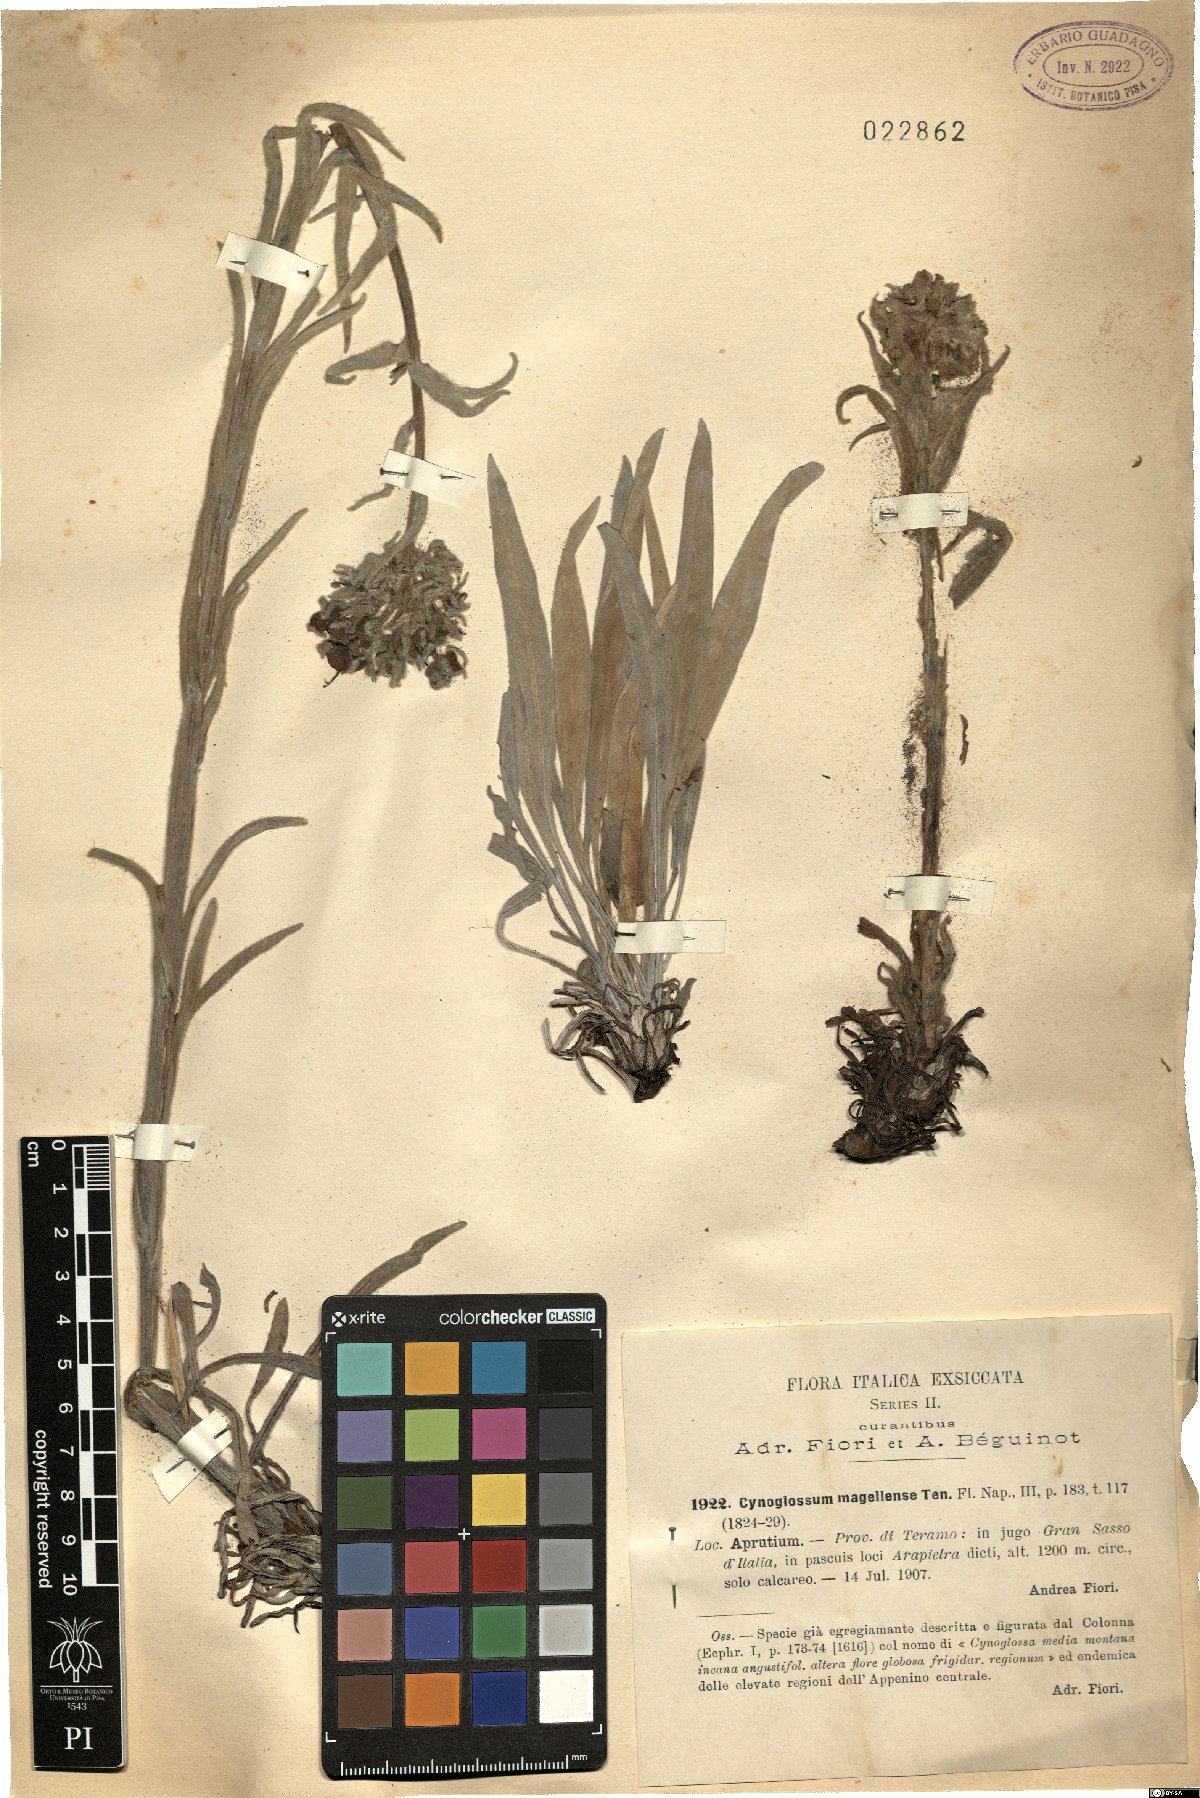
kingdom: Plantae
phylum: Tracheophyta
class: Magnoliopsida
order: Boraginales
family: Boraginaceae
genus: Rindera
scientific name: Rindera magellensis
